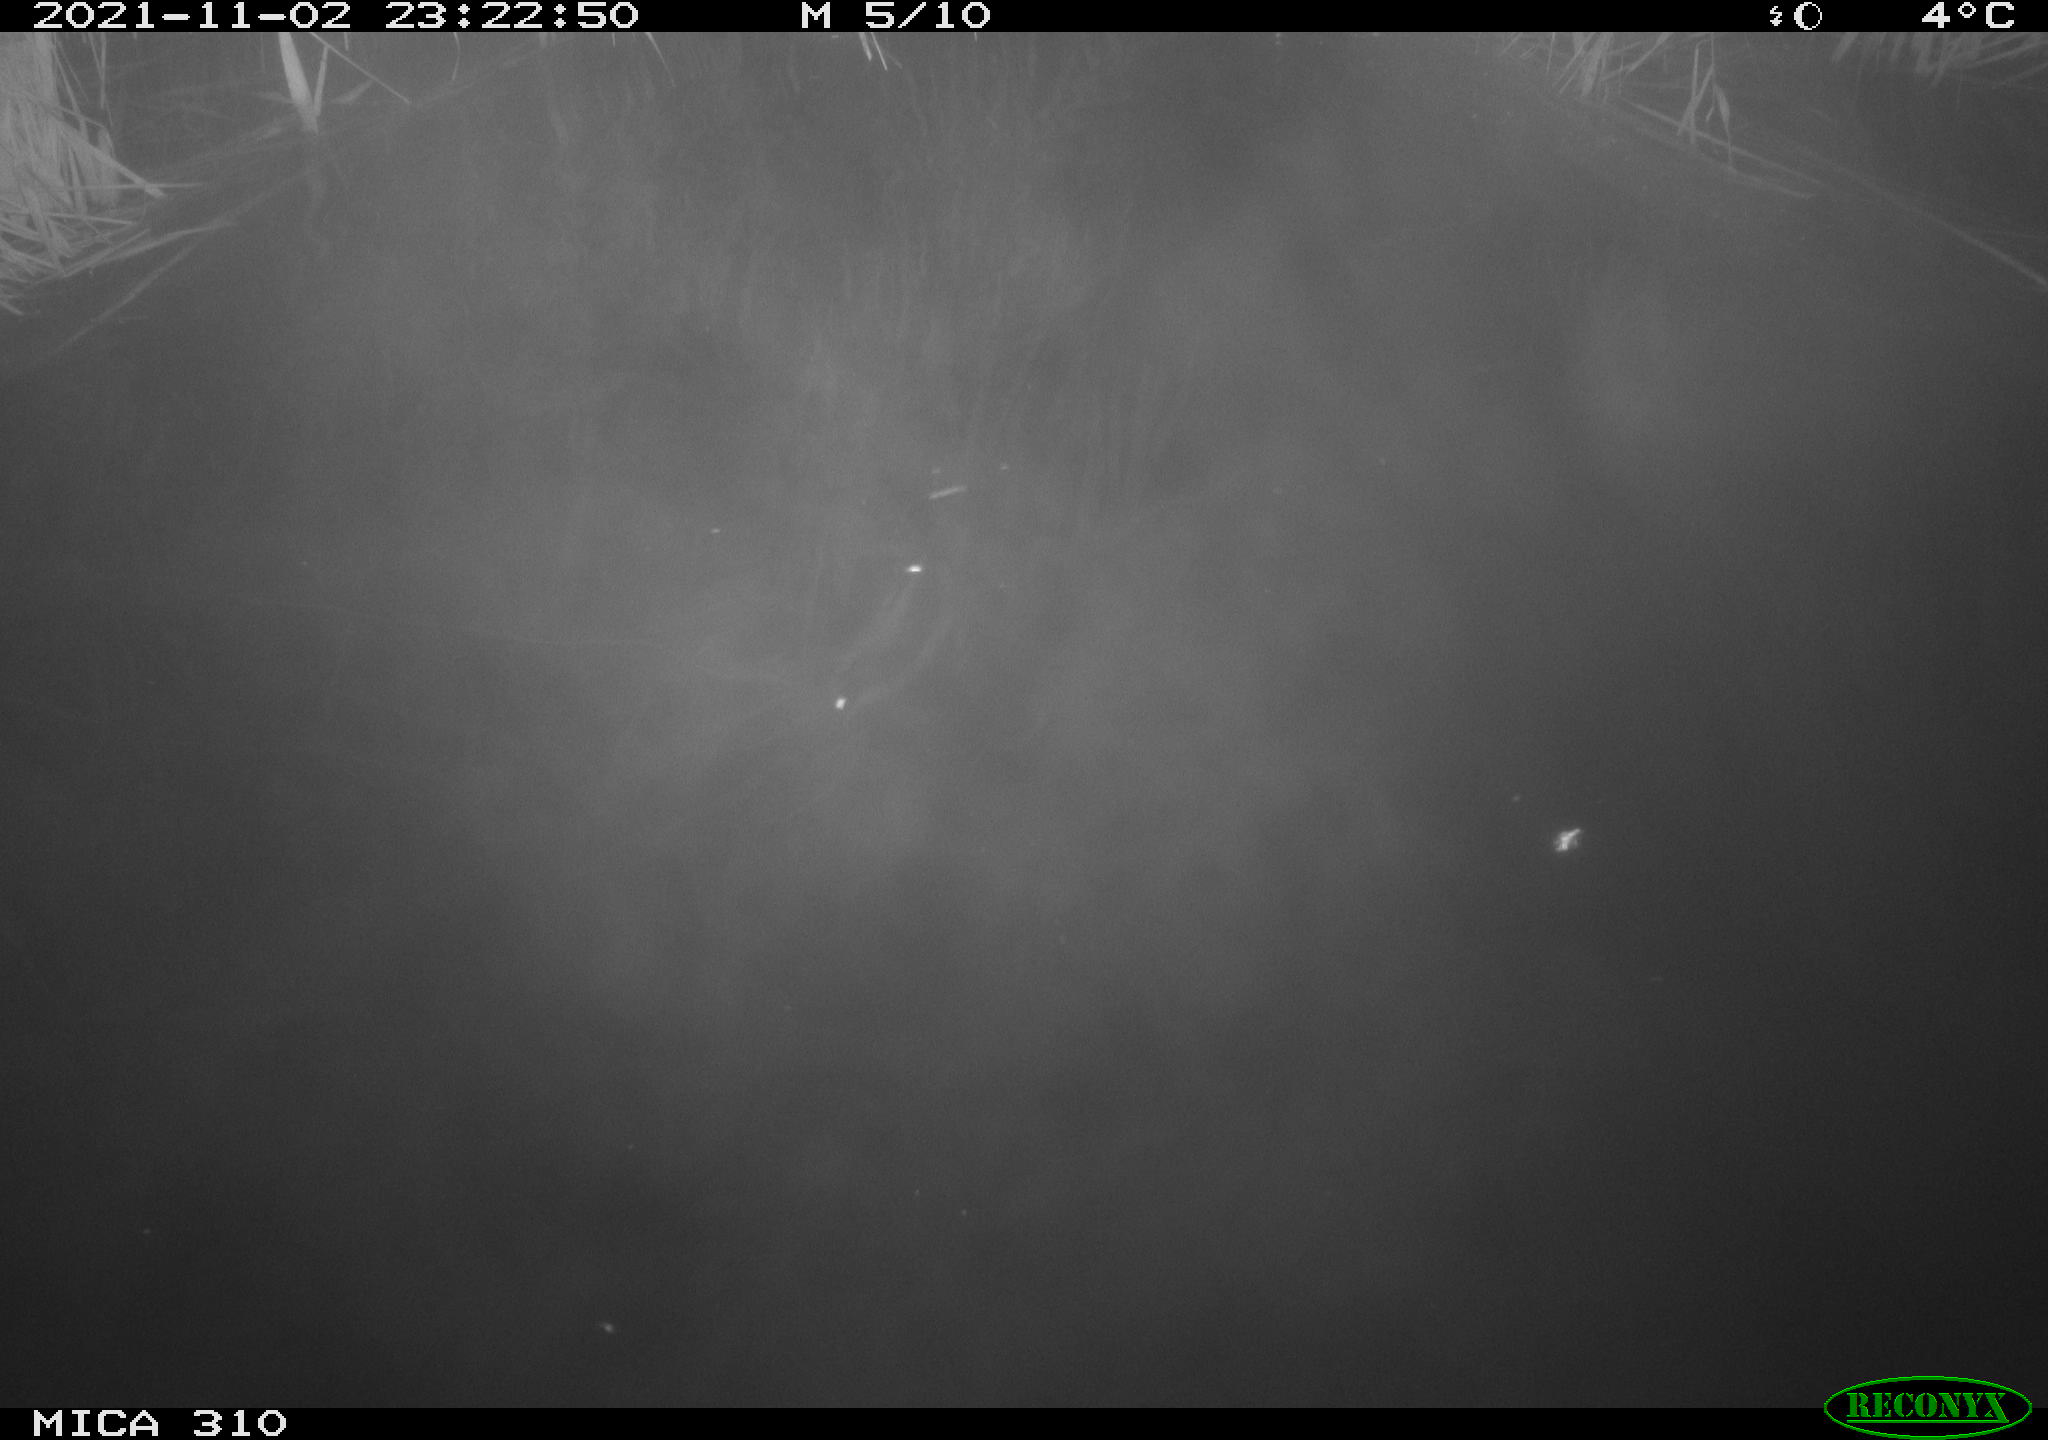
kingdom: Animalia
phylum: Chordata
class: Mammalia
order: Rodentia
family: Muridae
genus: Rattus
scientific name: Rattus norvegicus
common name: Brown rat
